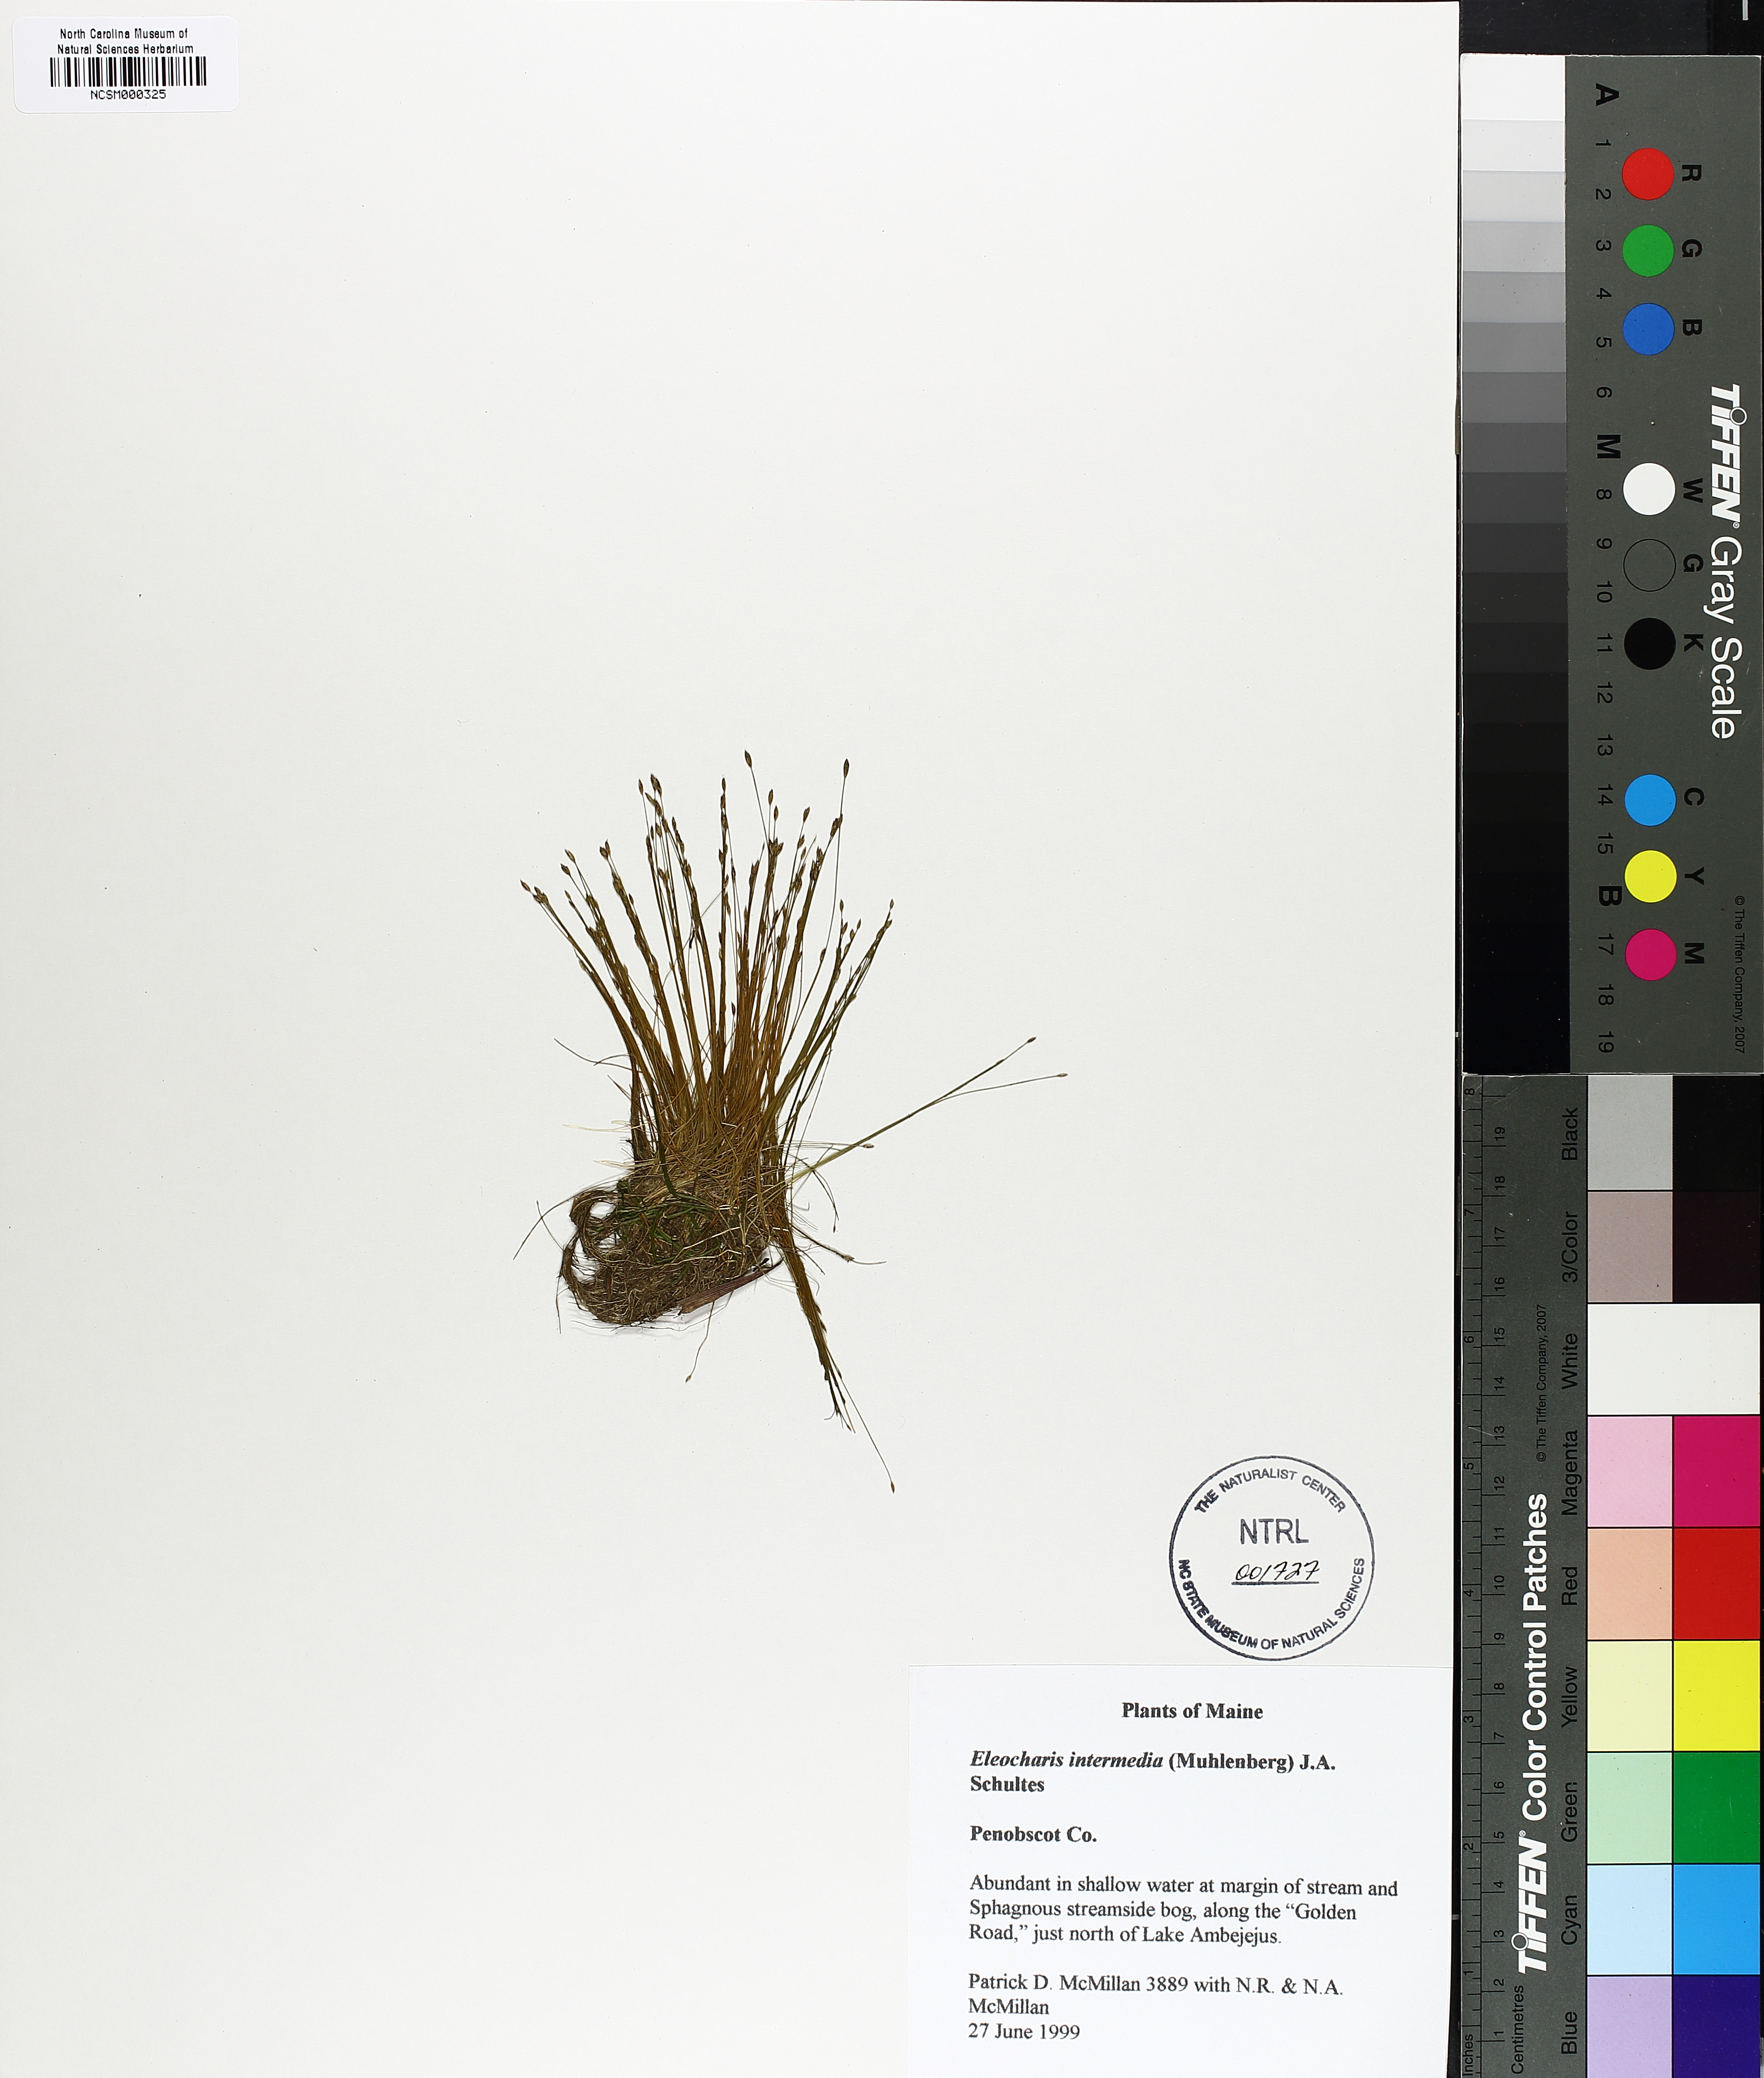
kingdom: Plantae
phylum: Tracheophyta
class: Liliopsida
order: Poales
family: Cyperaceae
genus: Eleocharis
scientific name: Eleocharis intermedia
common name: Intermediate spikerush
